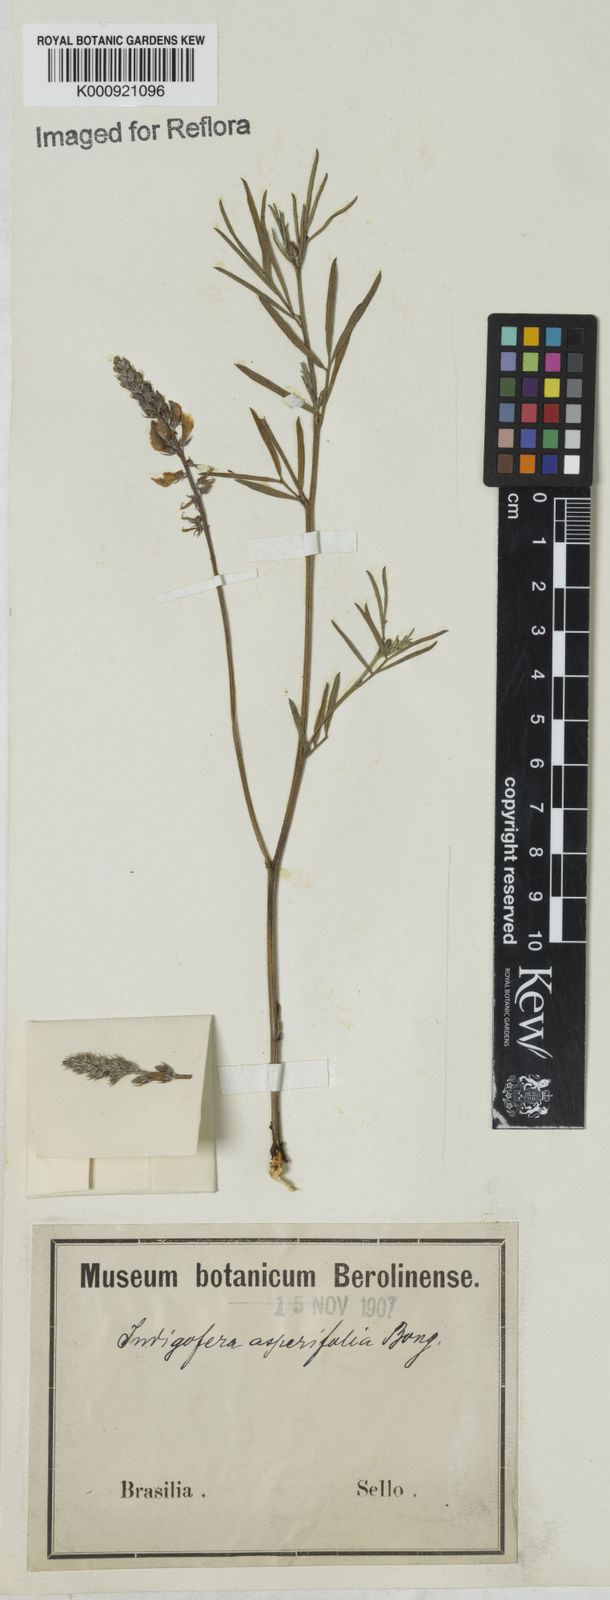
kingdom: Plantae
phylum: Tracheophyta
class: Magnoliopsida
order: Fabales
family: Fabaceae
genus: Indigofera
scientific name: Indigofera
